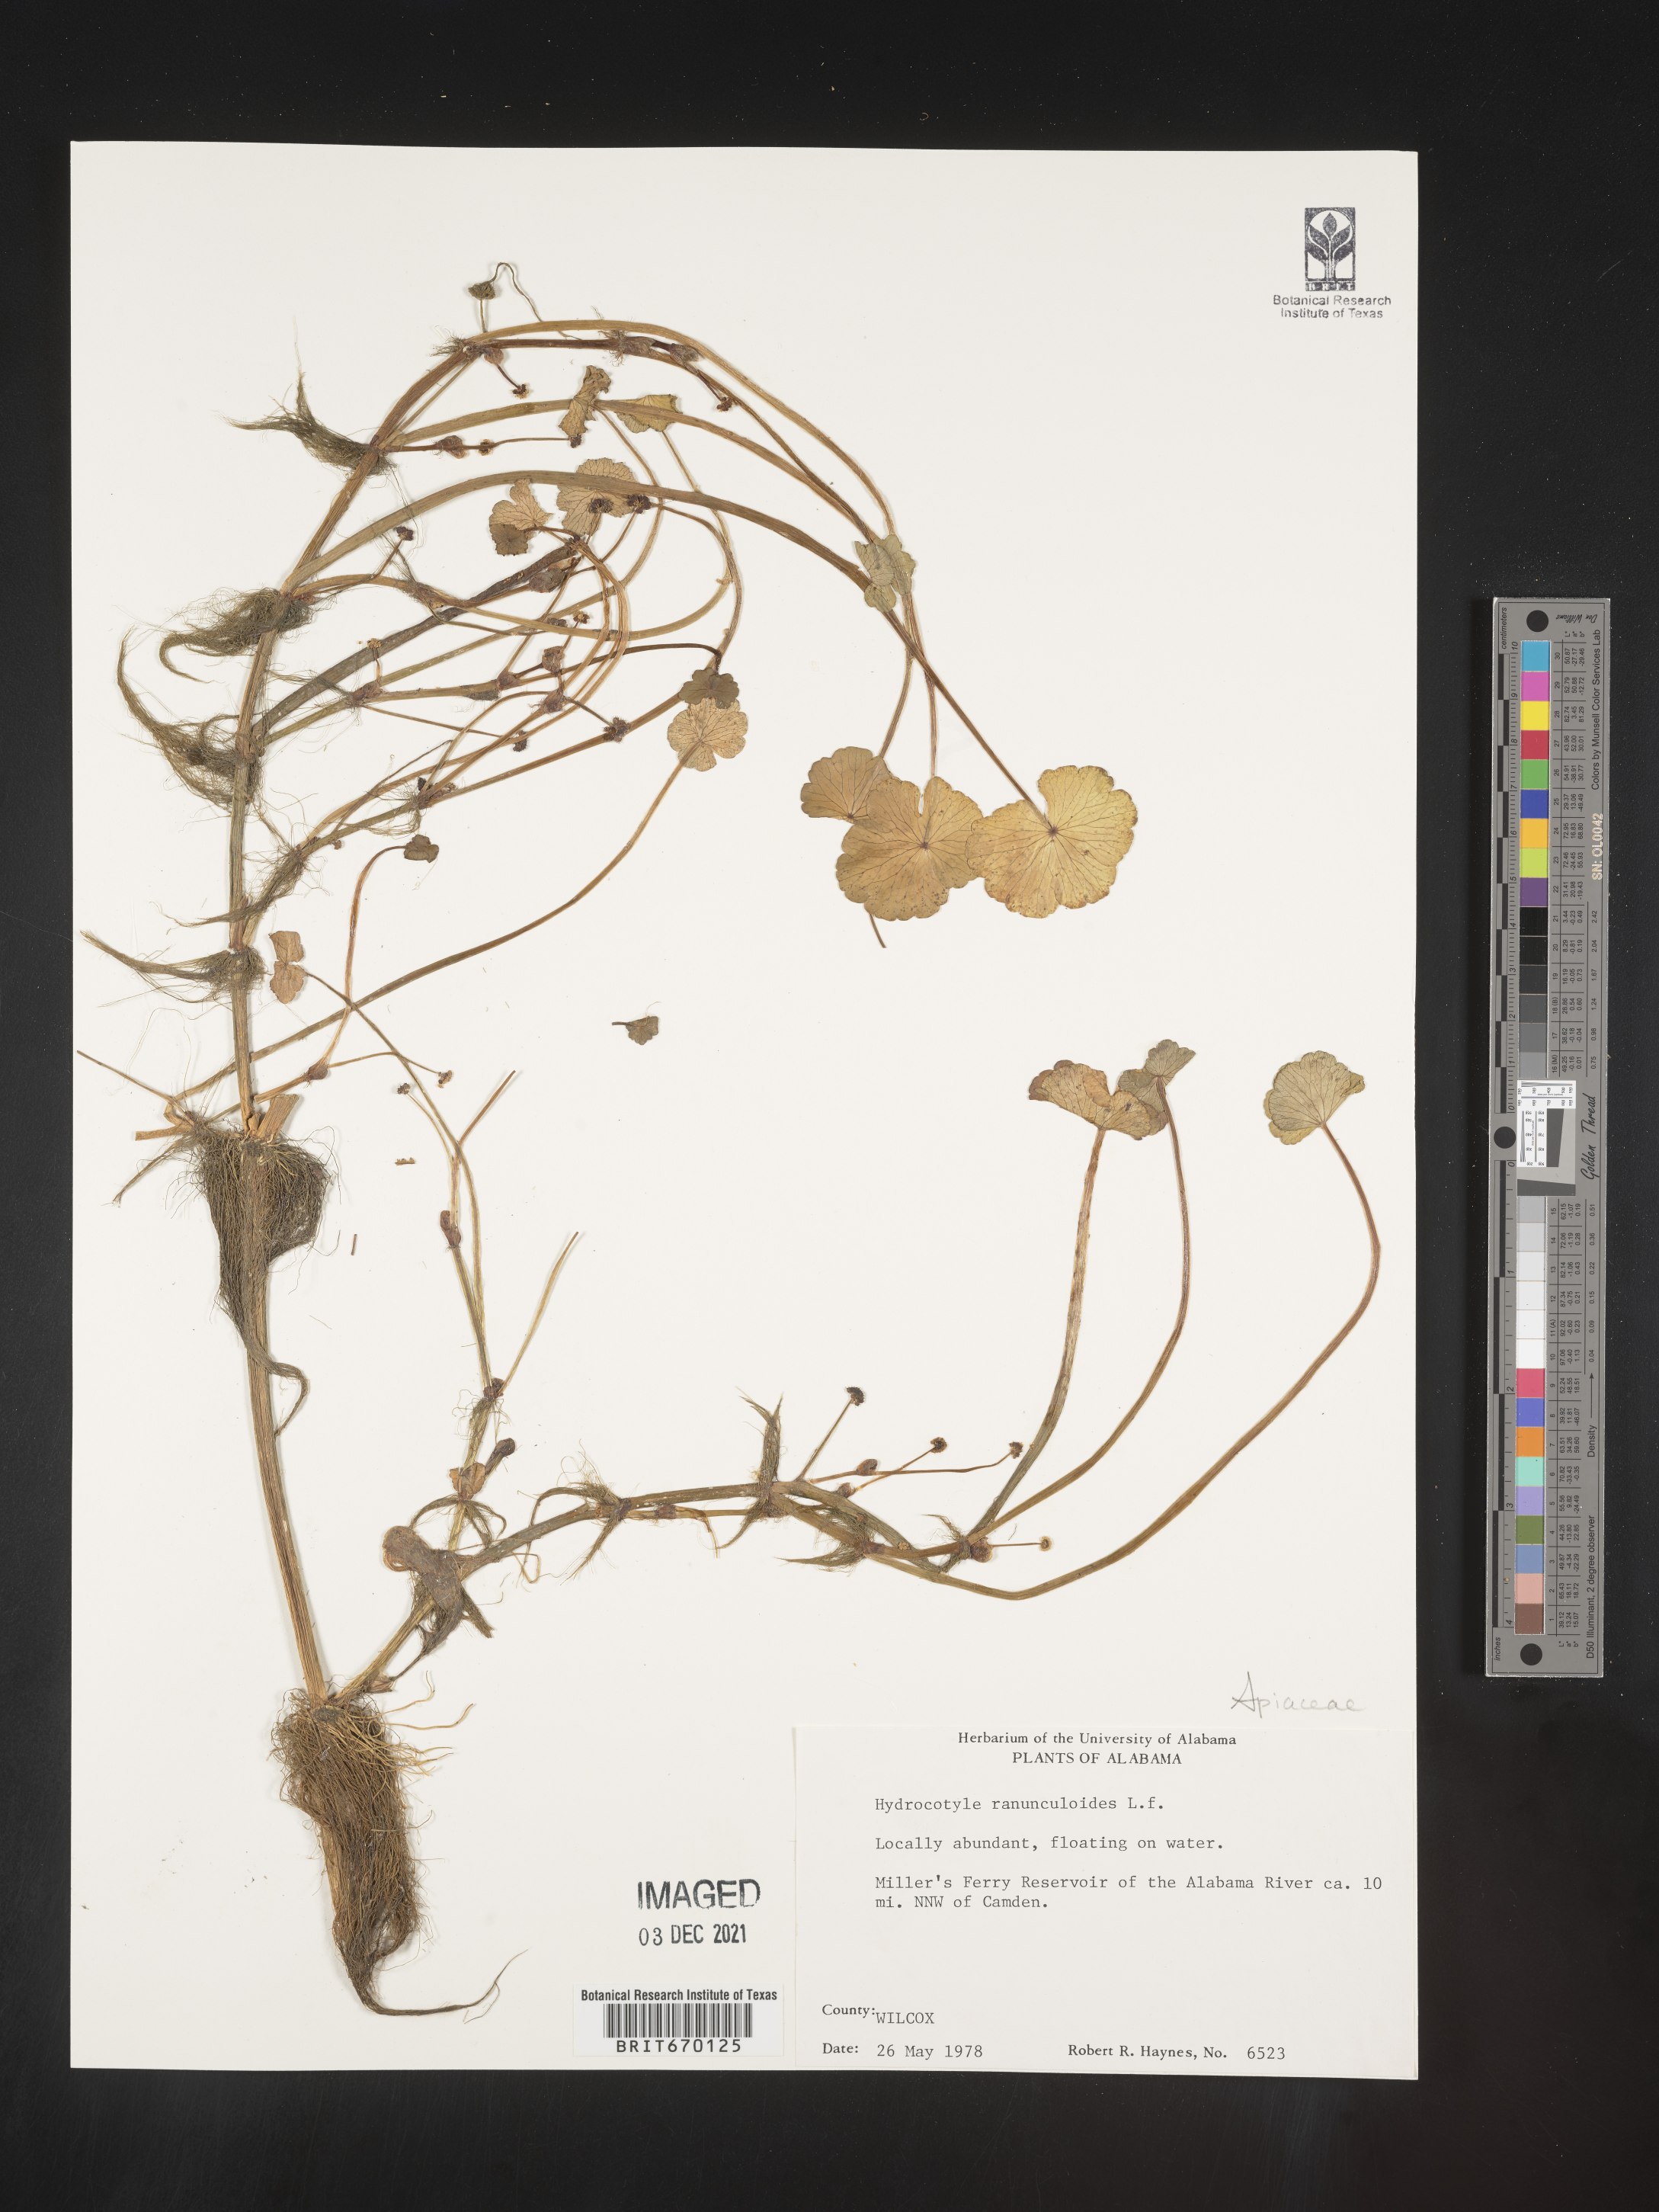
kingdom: Plantae
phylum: Tracheophyta
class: Magnoliopsida
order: Apiales
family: Araliaceae
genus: Hydrocotyle
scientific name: Hydrocotyle ranunculoides
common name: Floating pennywort
